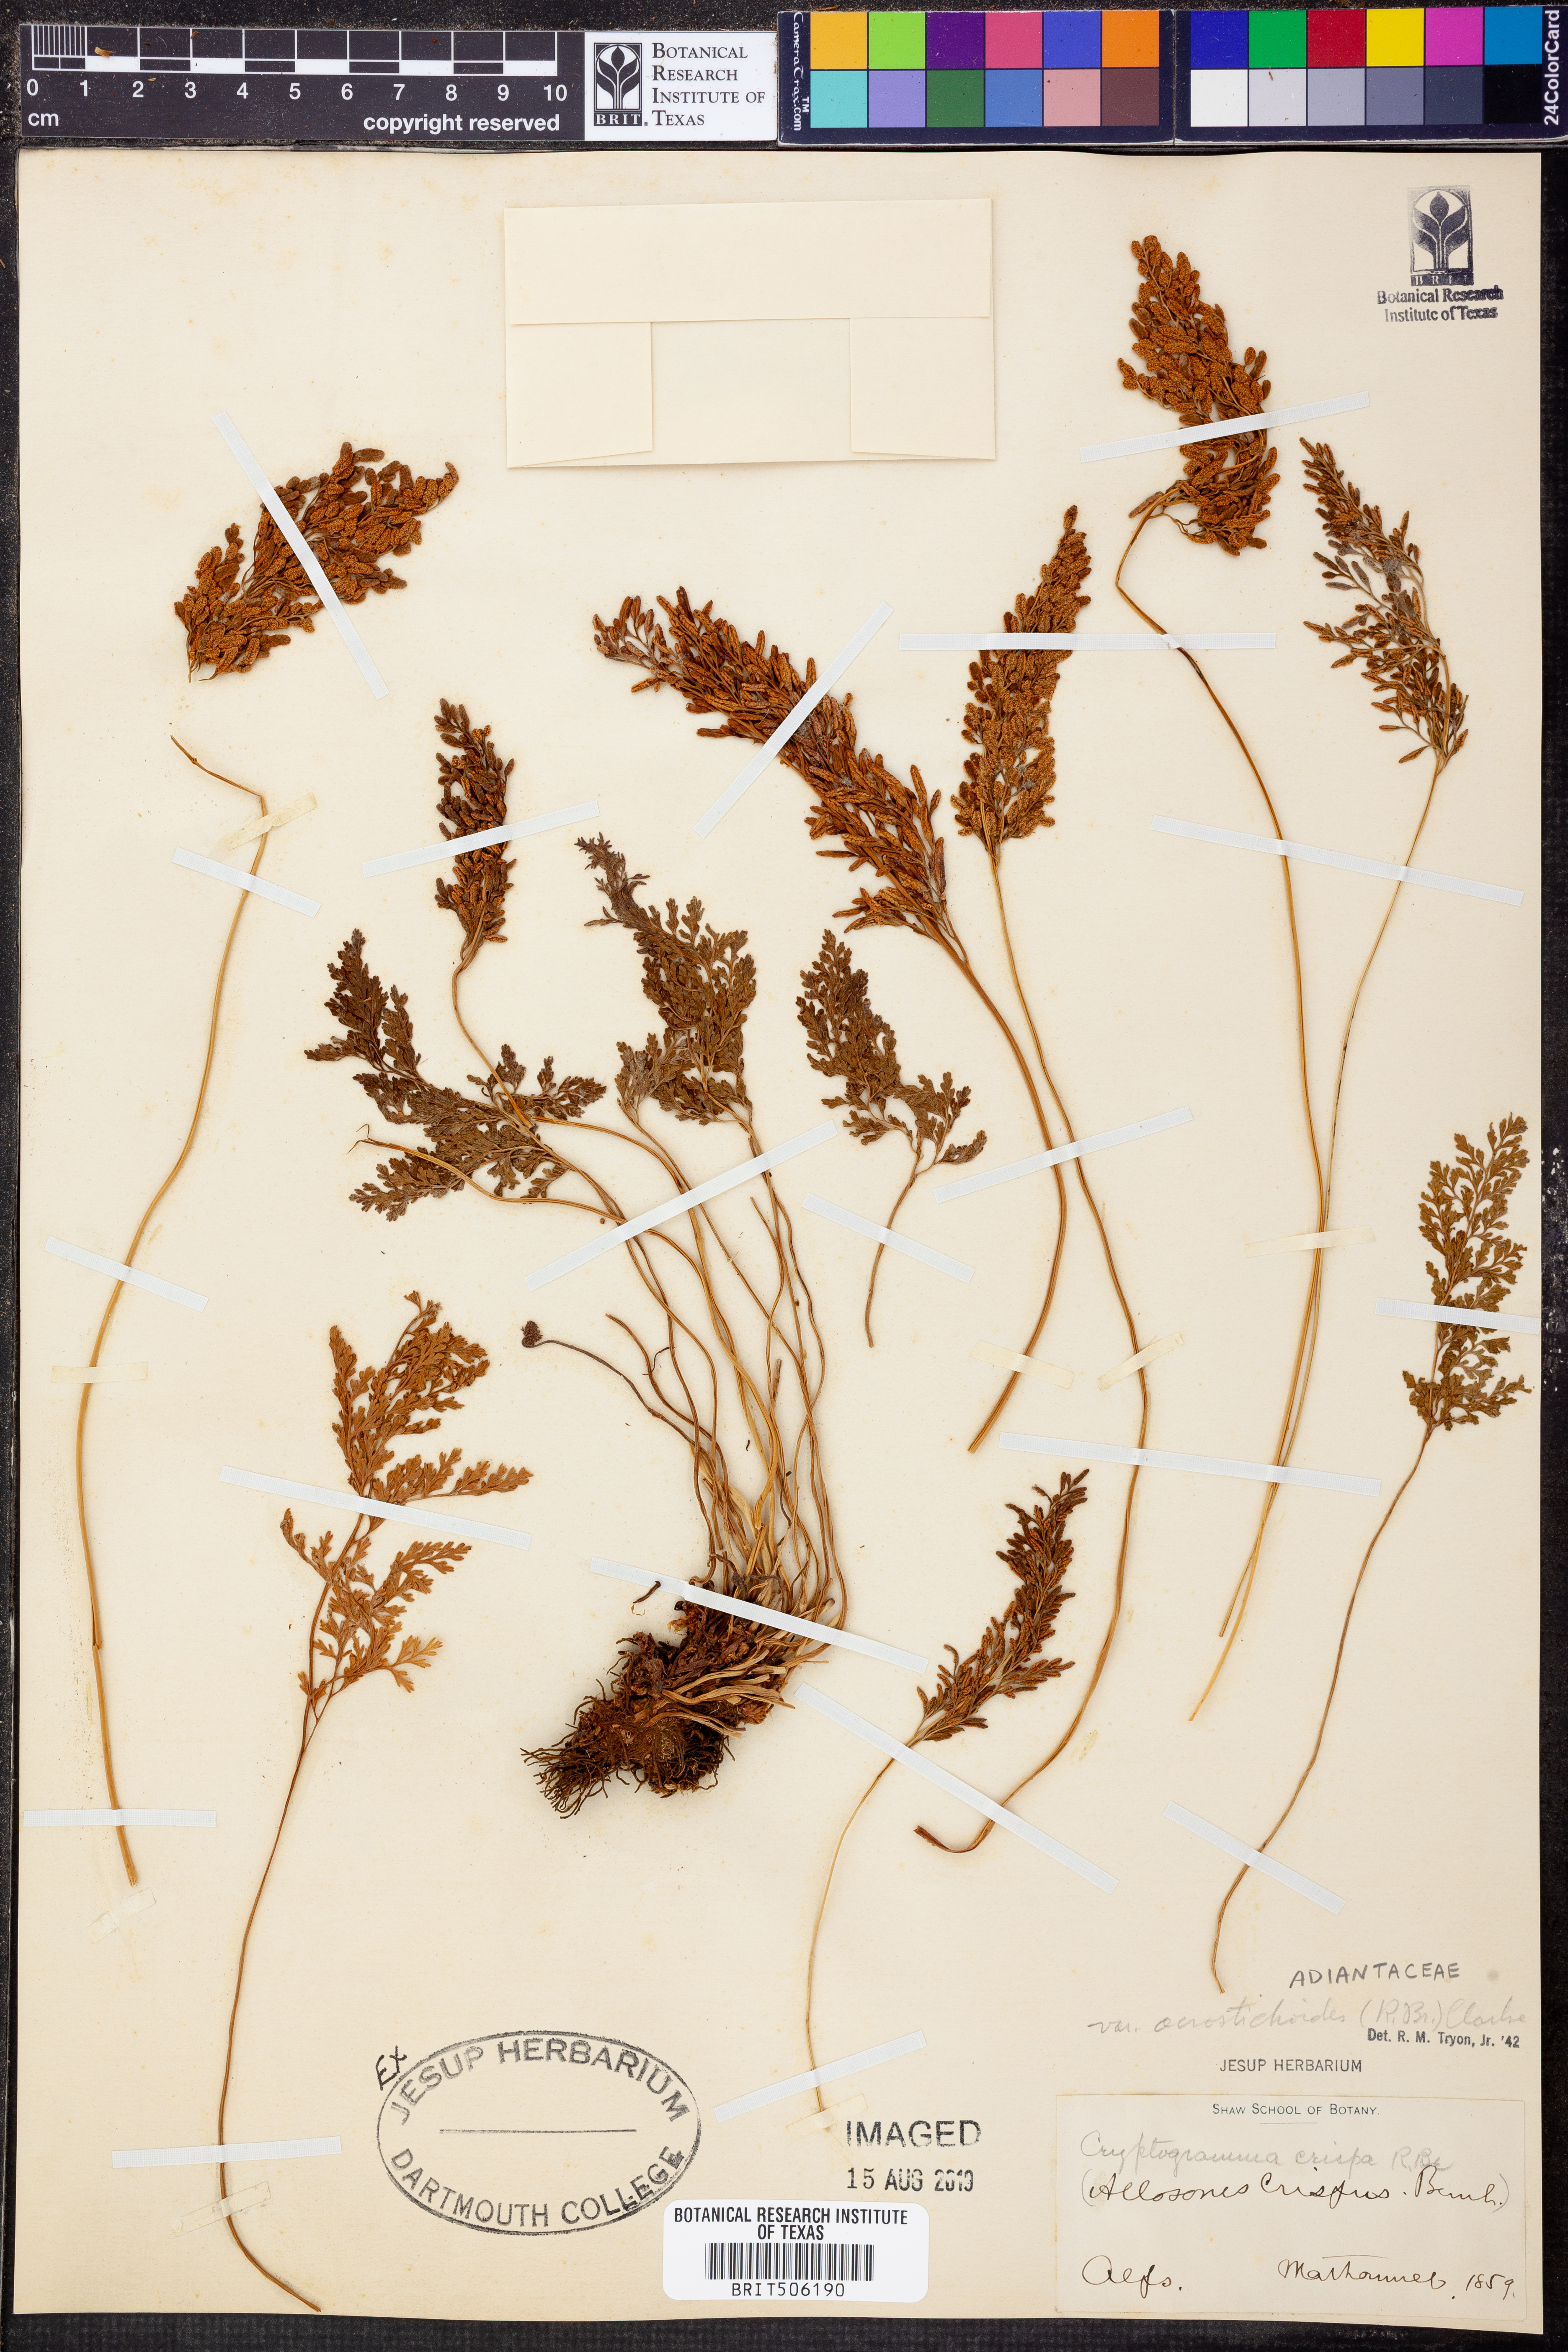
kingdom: Plantae
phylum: Tracheophyta
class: Polypodiopsida
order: Polypodiales
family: Pteridaceae
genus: Cryptogramma
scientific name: Cryptogramma acrostichoides
